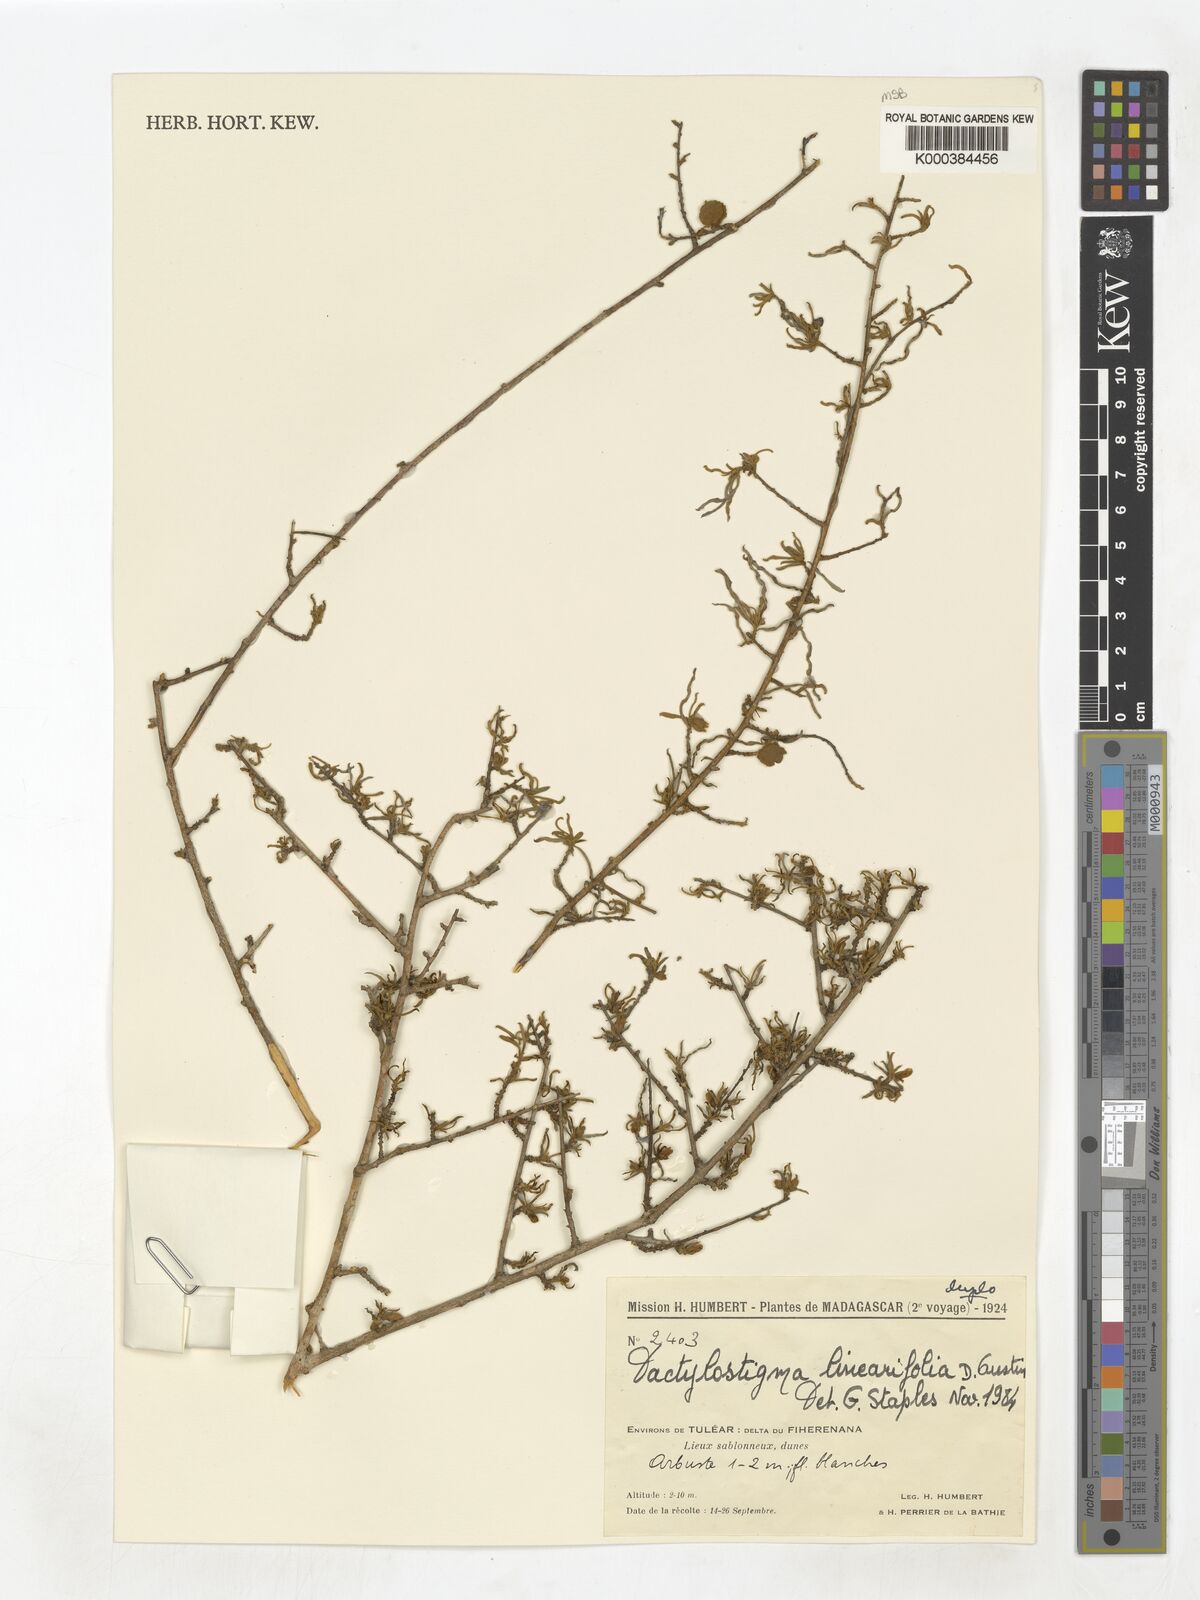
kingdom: Plantae
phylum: Tracheophyta
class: Magnoliopsida
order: Solanales
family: Convolvulaceae
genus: Hildebrandtia
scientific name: Hildebrandtia austinii
